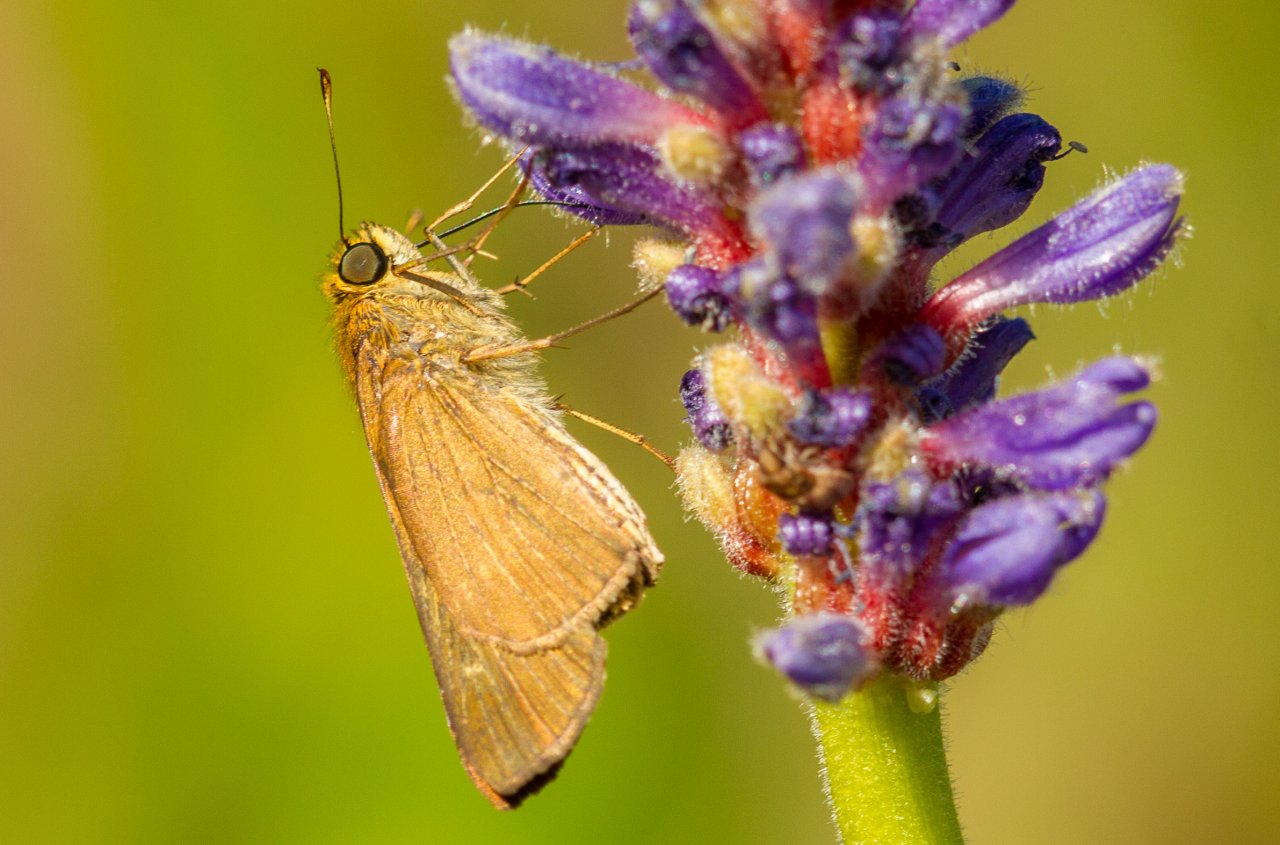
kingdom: Animalia
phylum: Arthropoda
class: Insecta
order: Lepidoptera
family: Hesperiidae
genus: Panoquina
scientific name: Panoquina ocola
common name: Ocola Skipper
